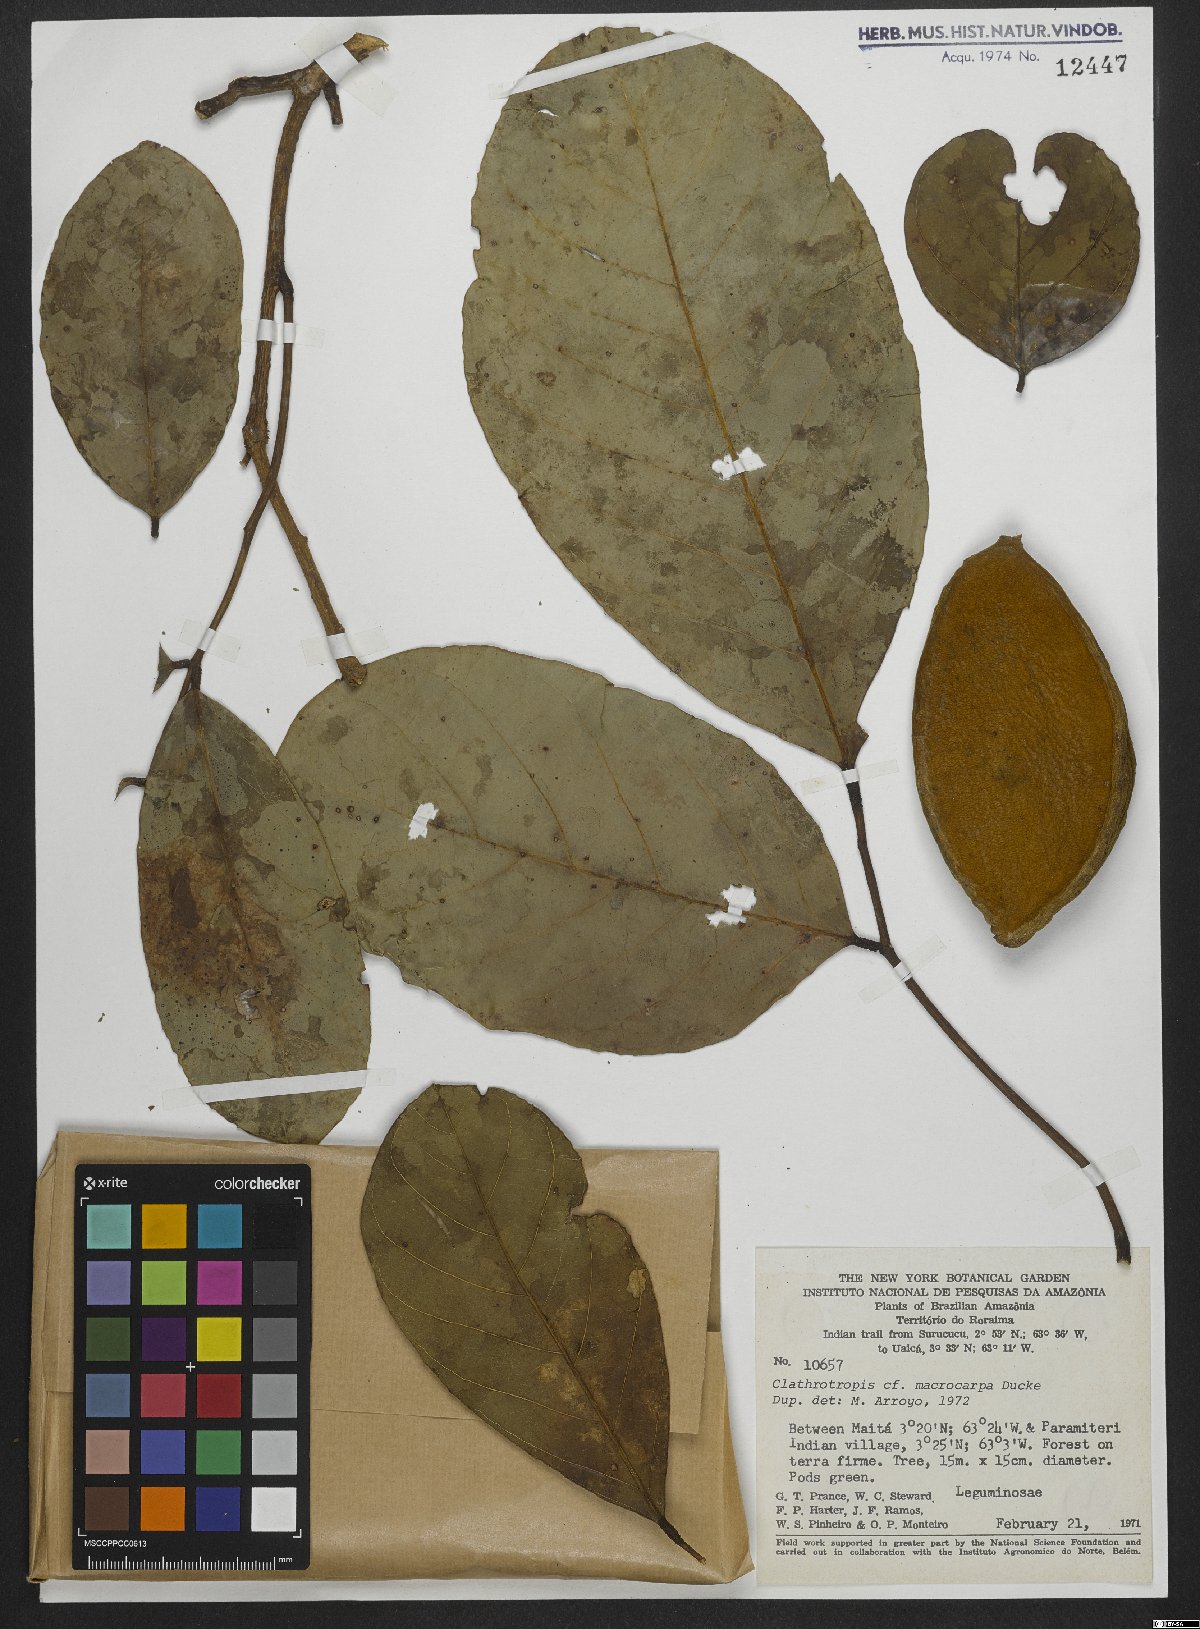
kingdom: Plantae
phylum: Tracheophyta
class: Magnoliopsida
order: Fabales
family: Fabaceae
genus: Clathrotropis
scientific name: Clathrotropis macrocarpa
